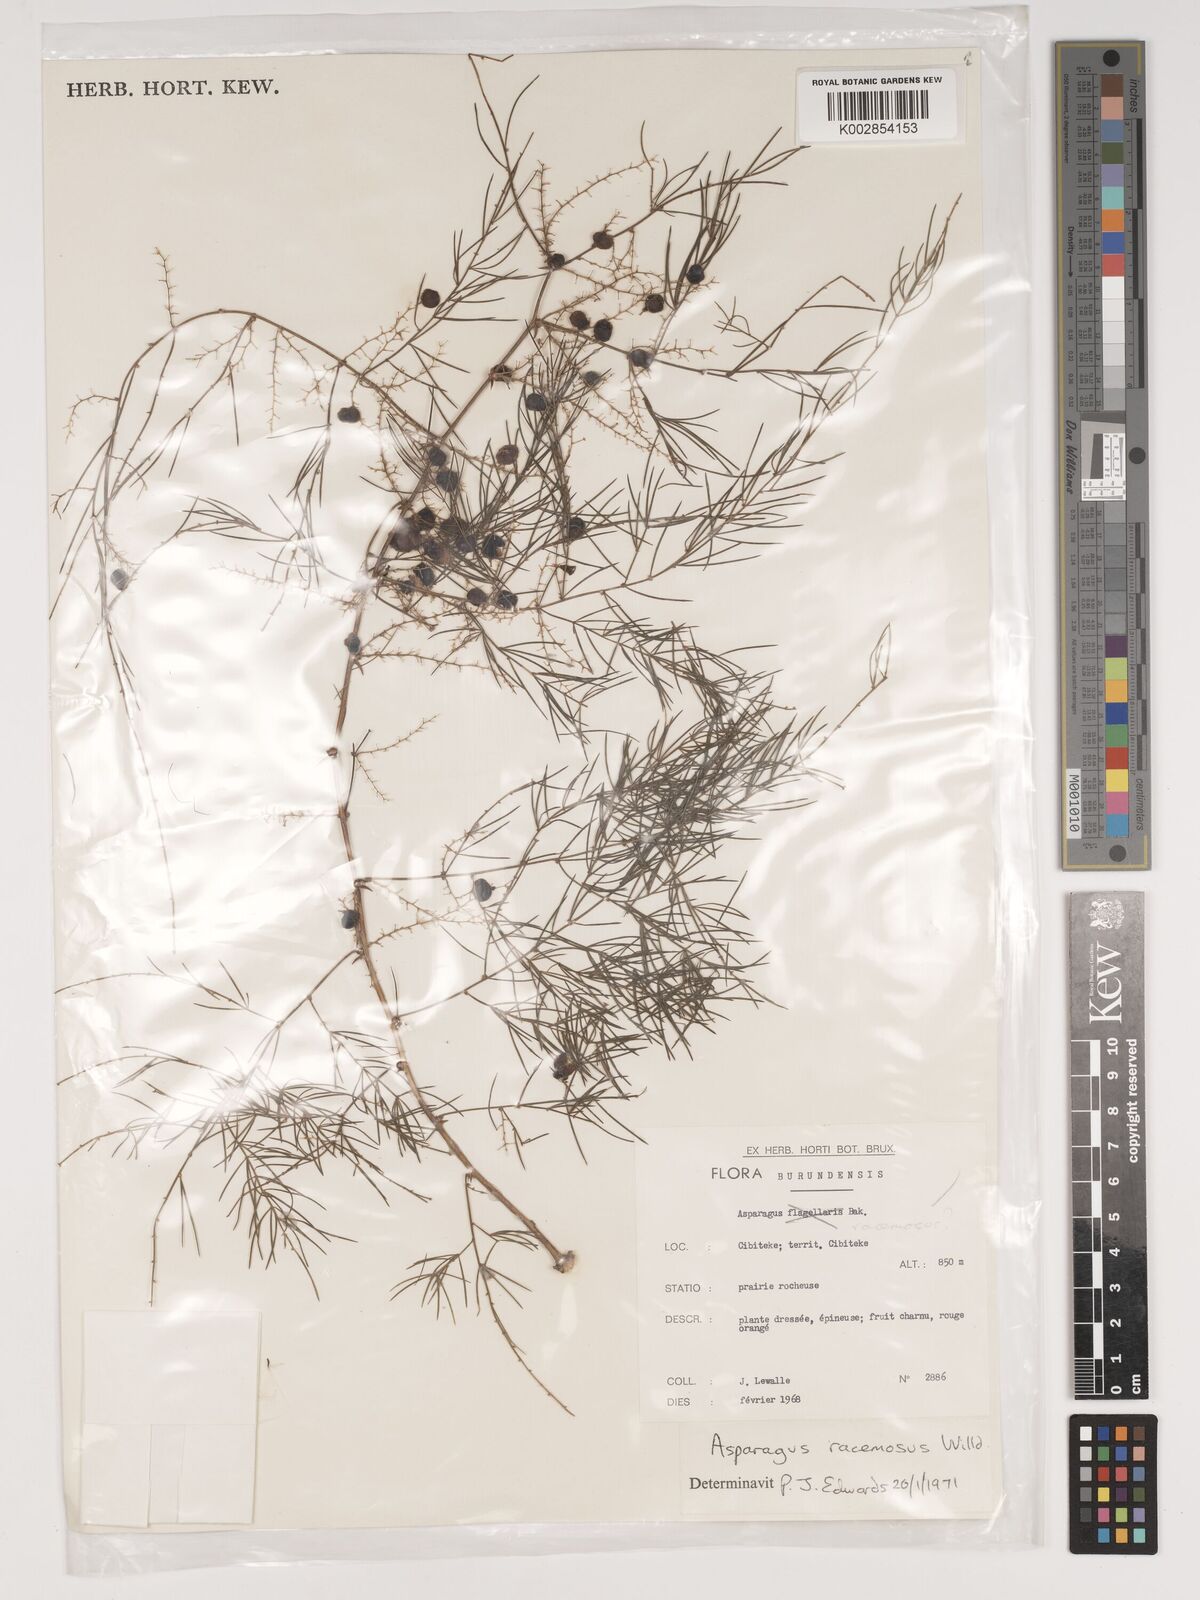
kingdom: Plantae
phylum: Tracheophyta
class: Liliopsida
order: Asparagales
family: Asparagaceae
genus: Asparagus
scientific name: Asparagus racemosus
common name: Asparagus-fern
